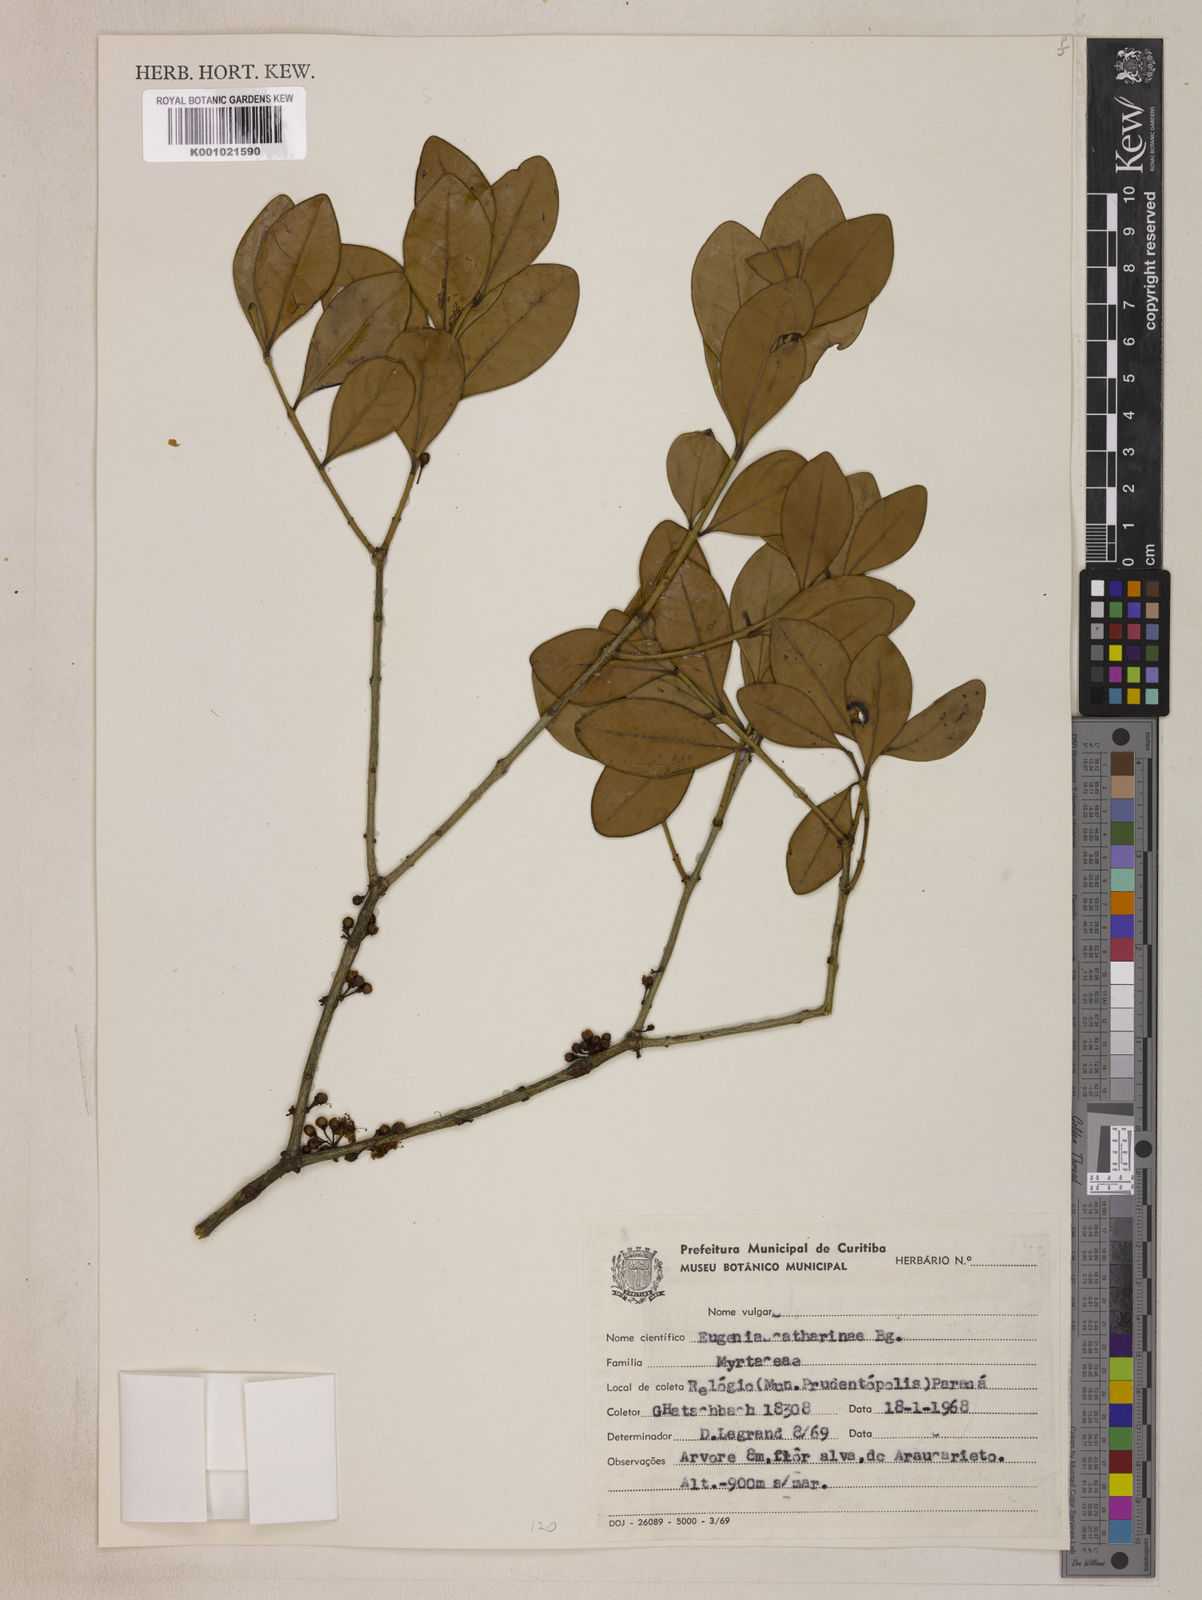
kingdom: Plantae
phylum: Tracheophyta
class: Magnoliopsida
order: Myrtales
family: Myrtaceae
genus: Eugenia
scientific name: Eugenia catharinae
